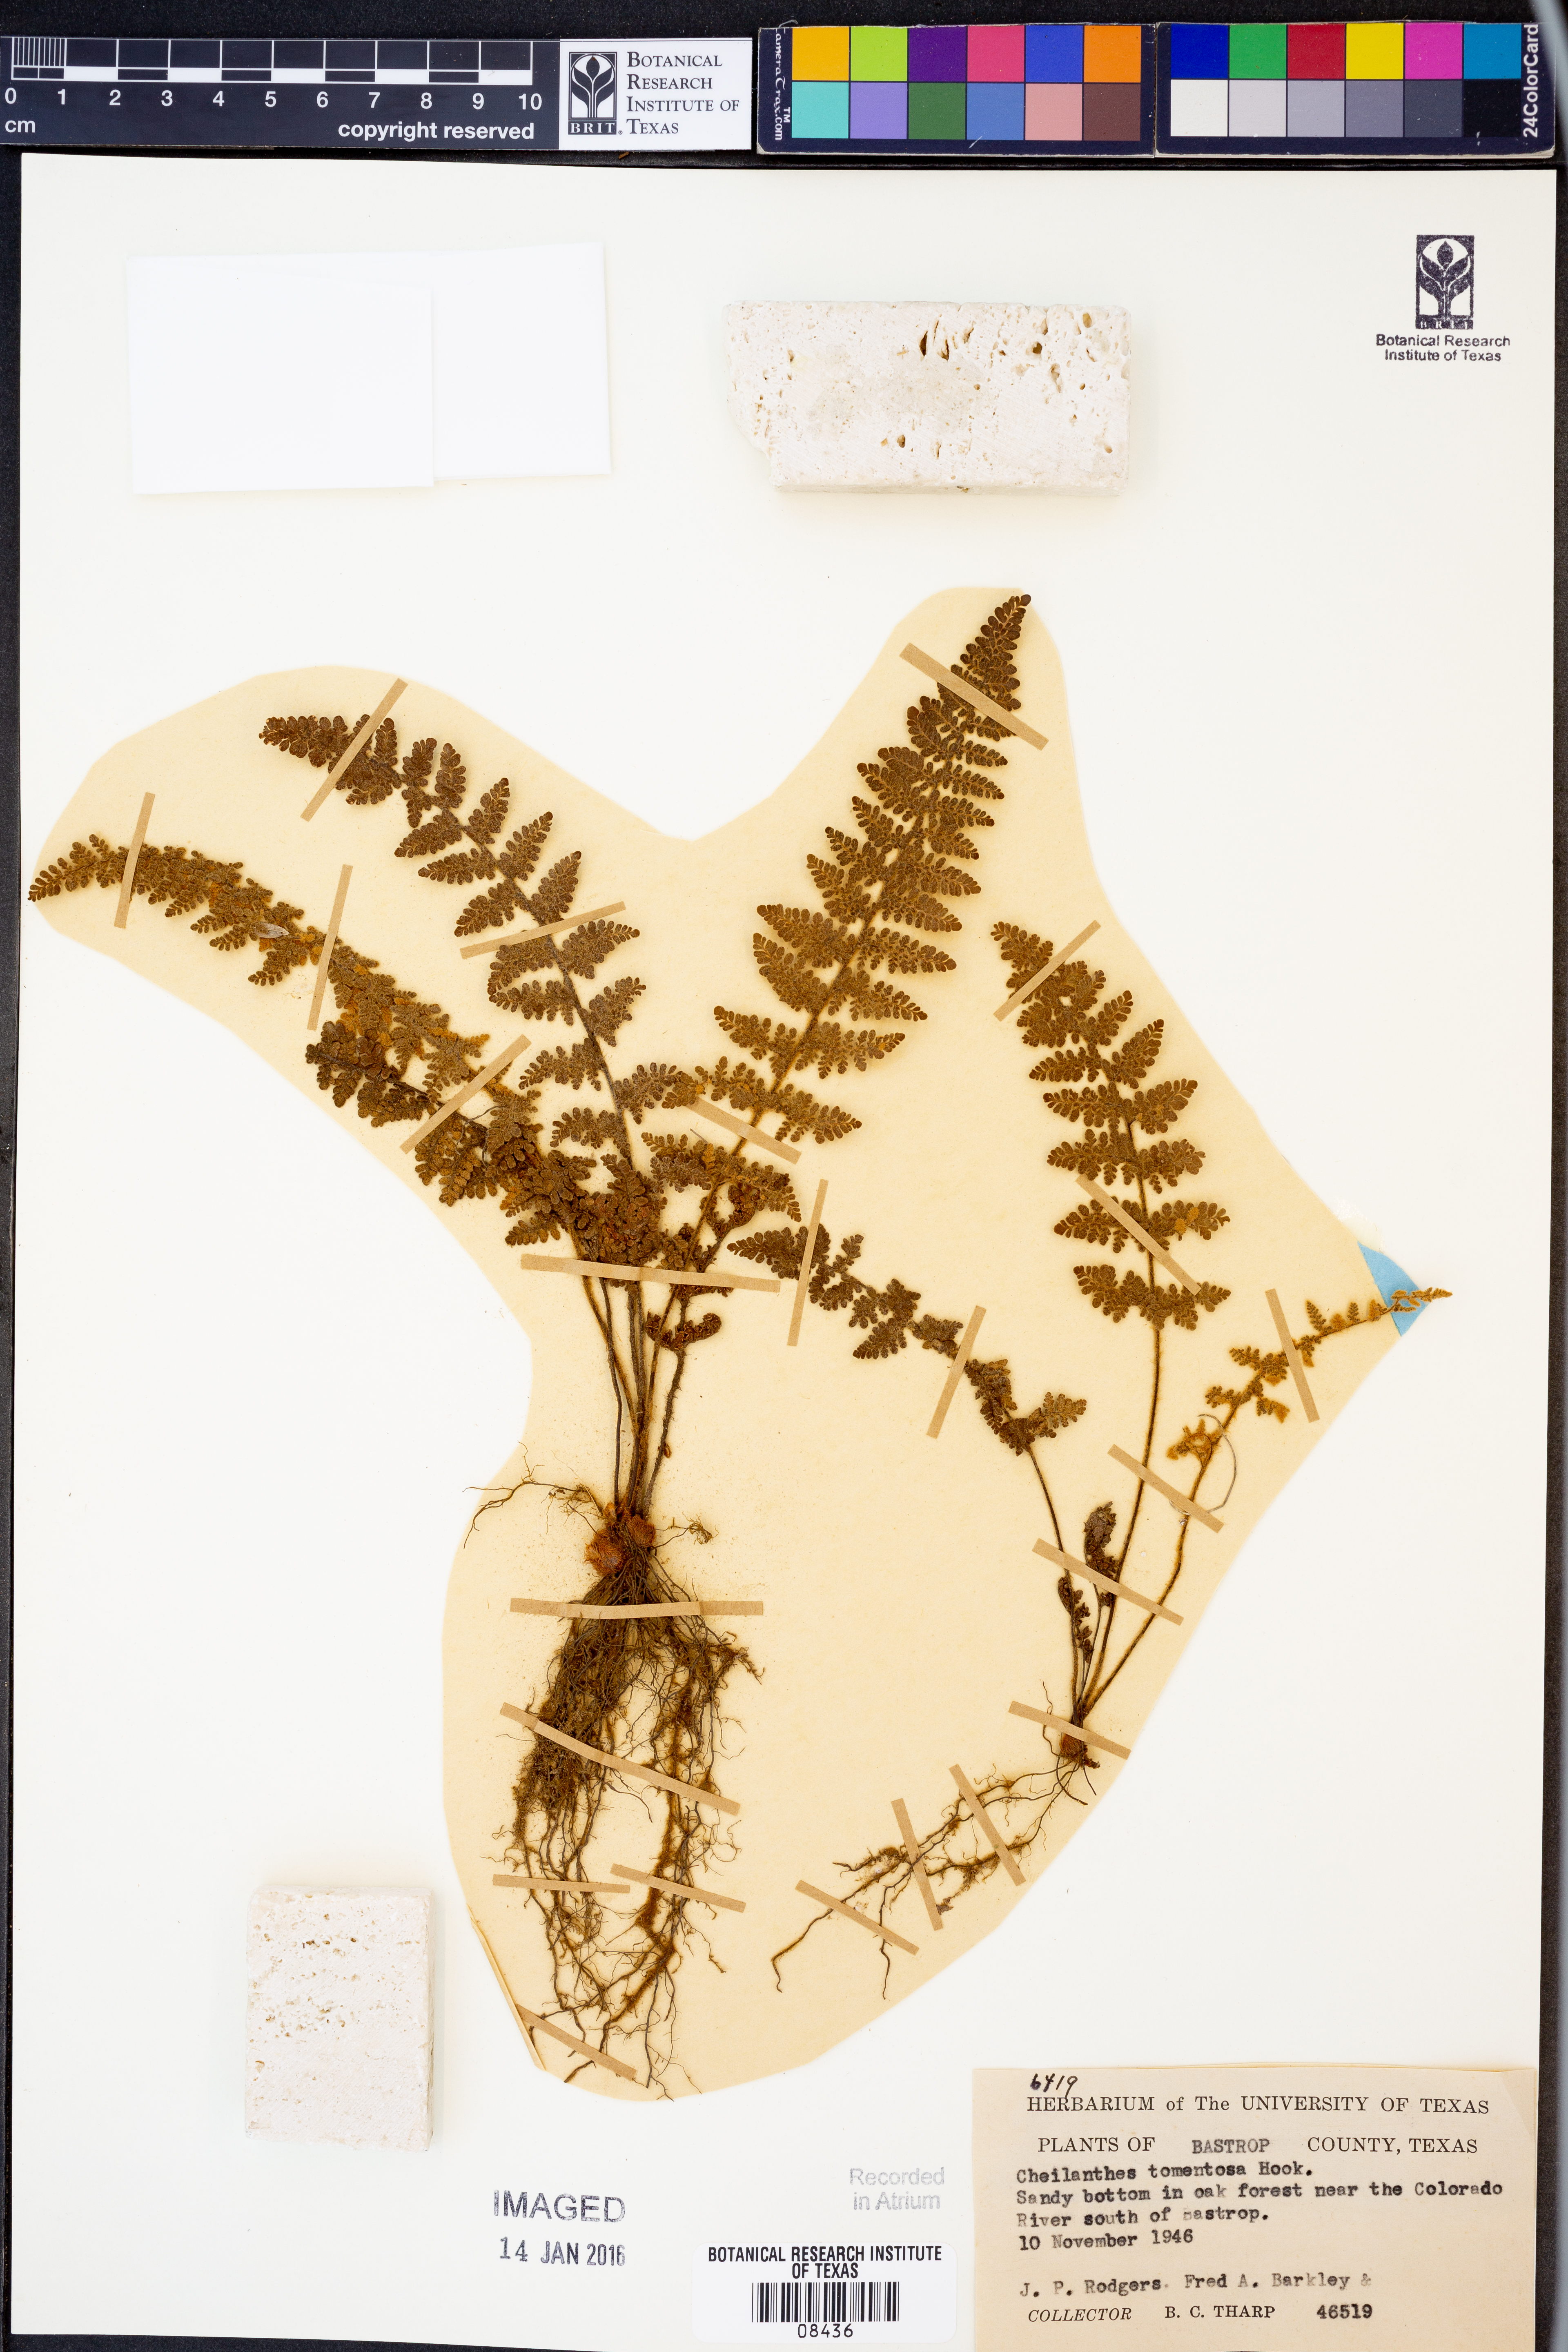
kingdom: Plantae
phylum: Tracheophyta
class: Polypodiopsida
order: Polypodiales
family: Pteridaceae
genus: Myriopteris
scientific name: Myriopteris tomentosa
